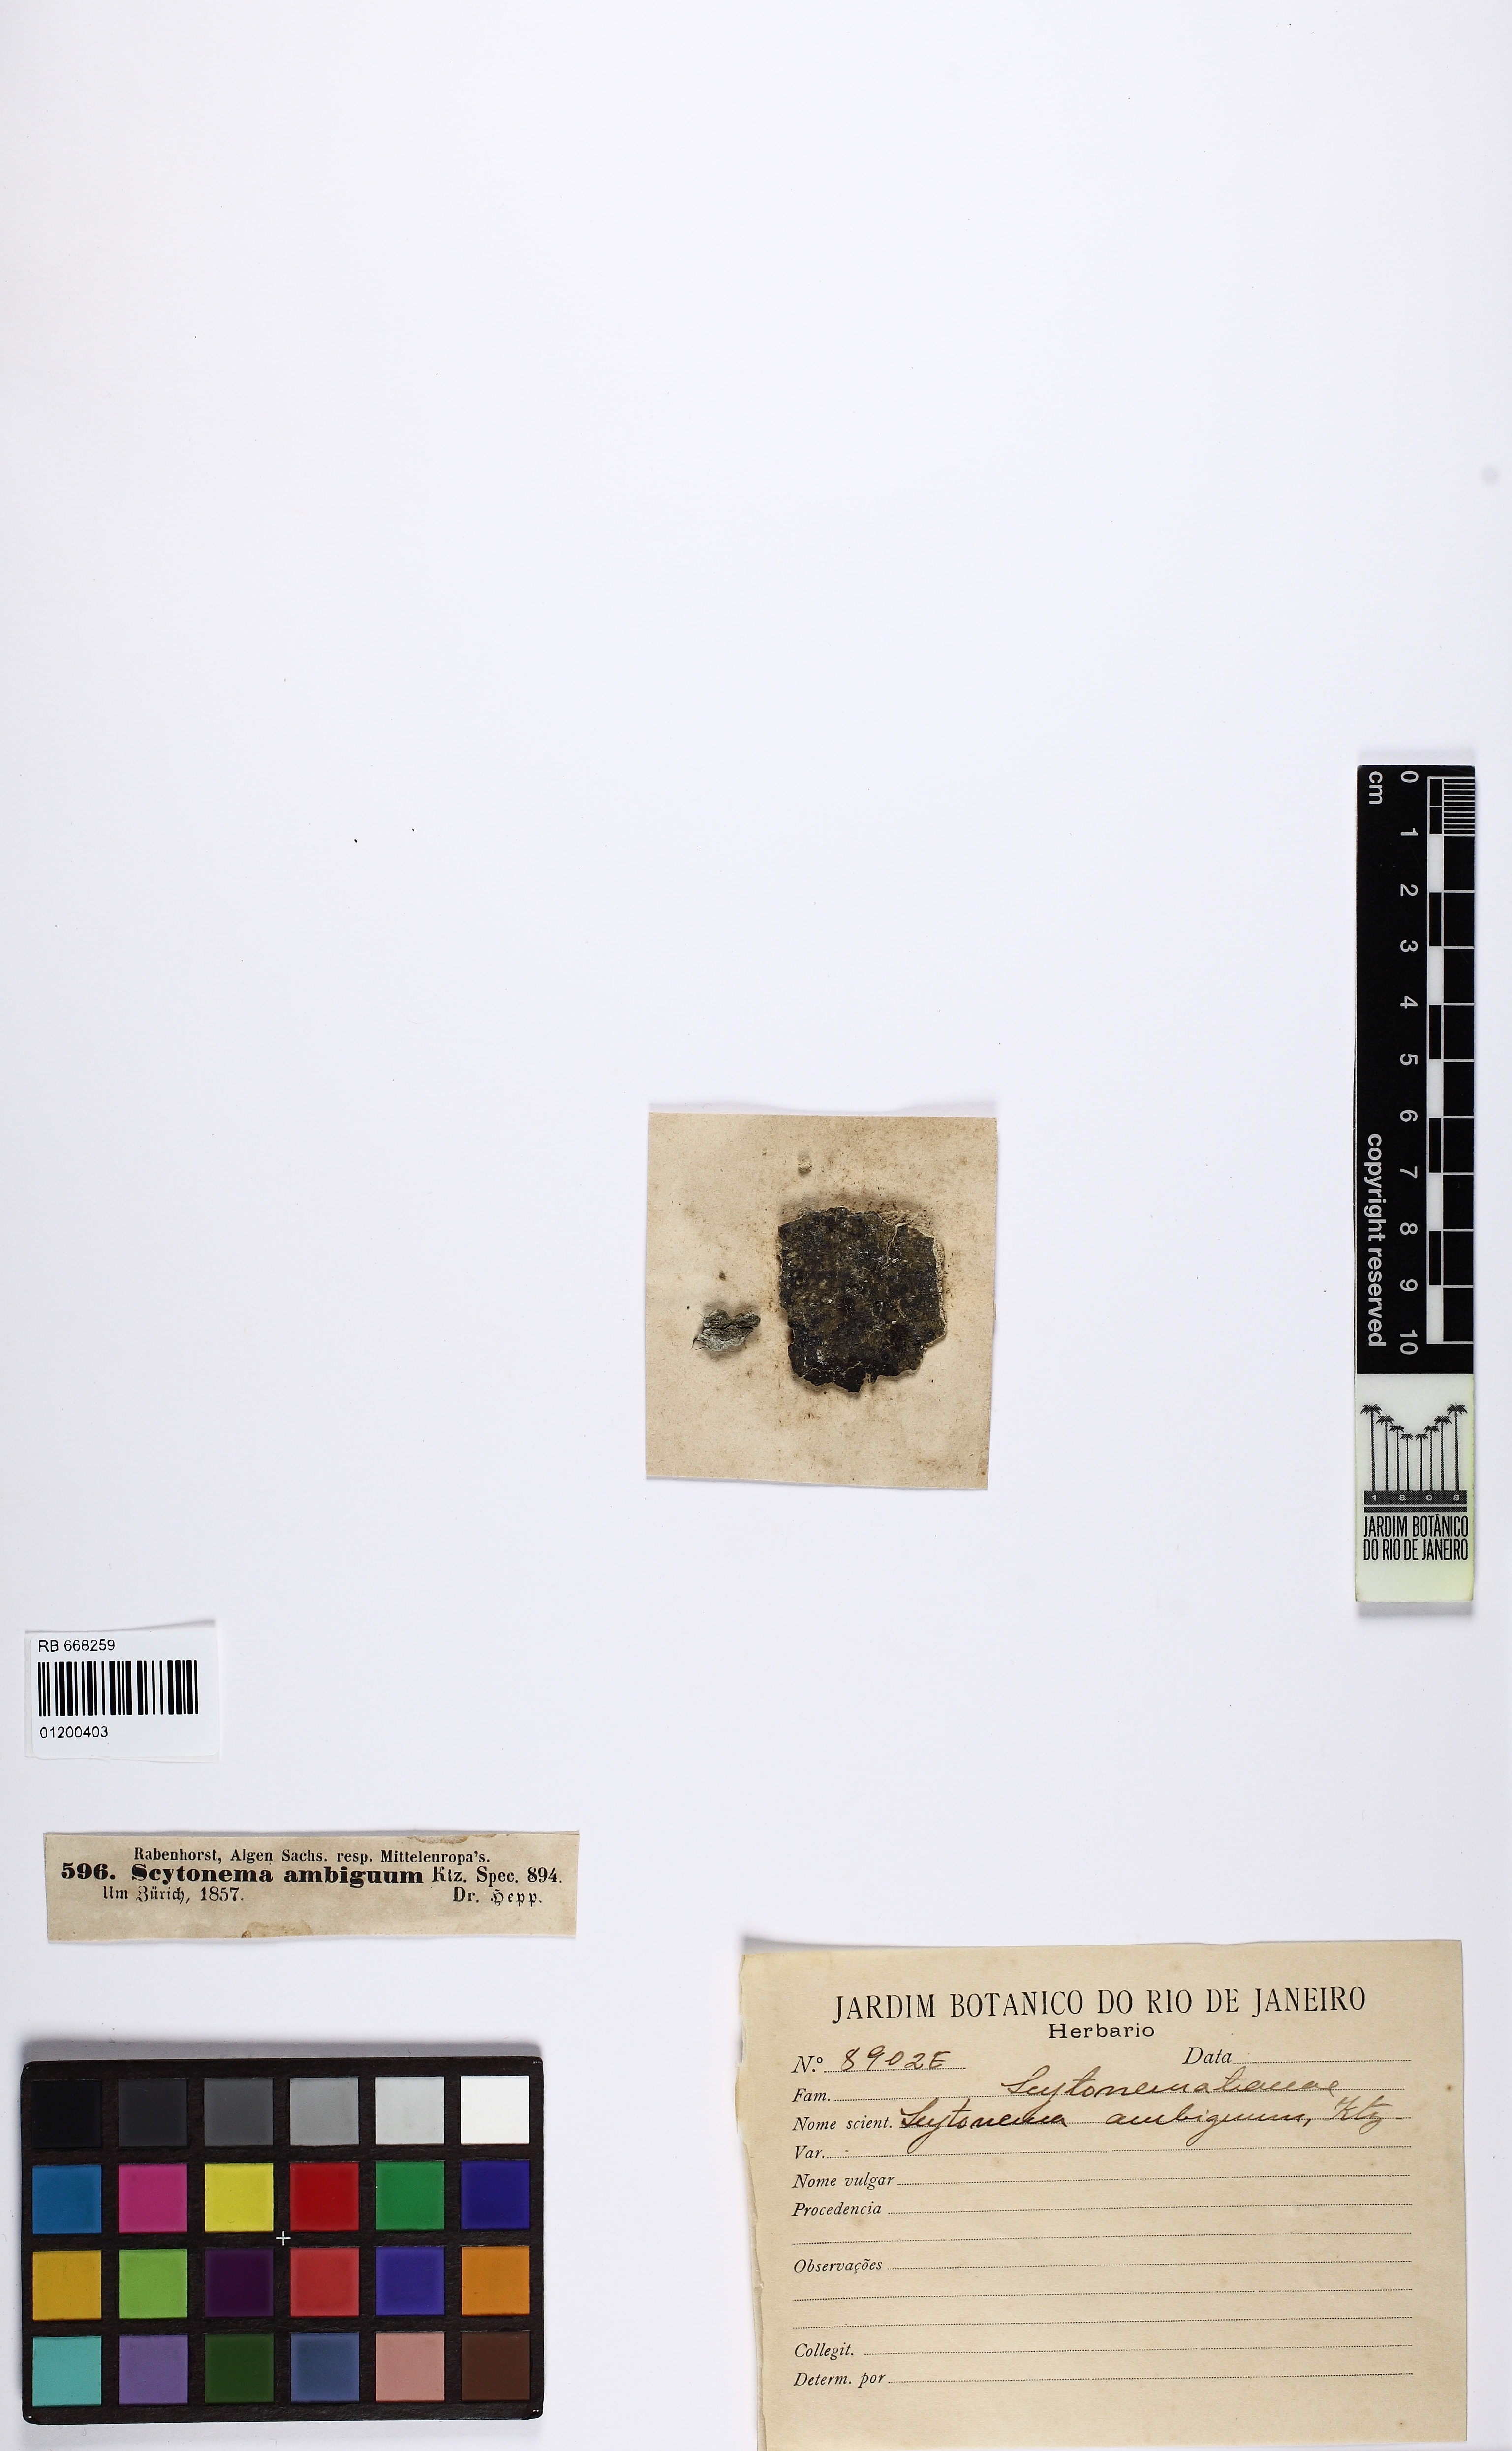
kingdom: Bacteria
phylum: Cyanobacteria
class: Cyanobacteriia
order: Cyanobacteriales
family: Nostocaceae
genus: Fischerella
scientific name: Fischerella ambigua
